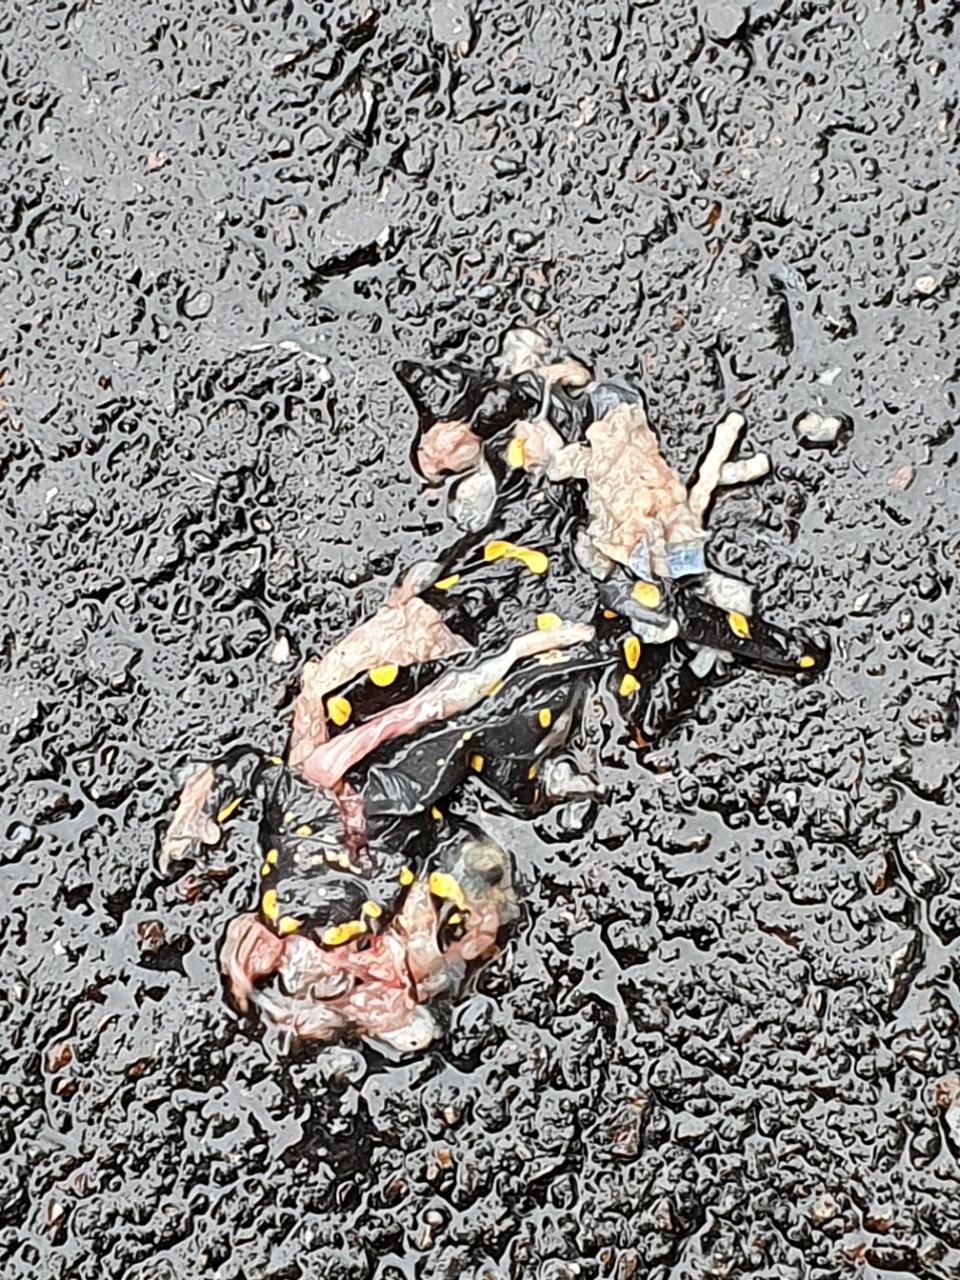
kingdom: Animalia
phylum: Chordata
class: Amphibia
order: Caudata
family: Salamandridae
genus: Salamandra
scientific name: Salamandra salamandra
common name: Fire salamander
